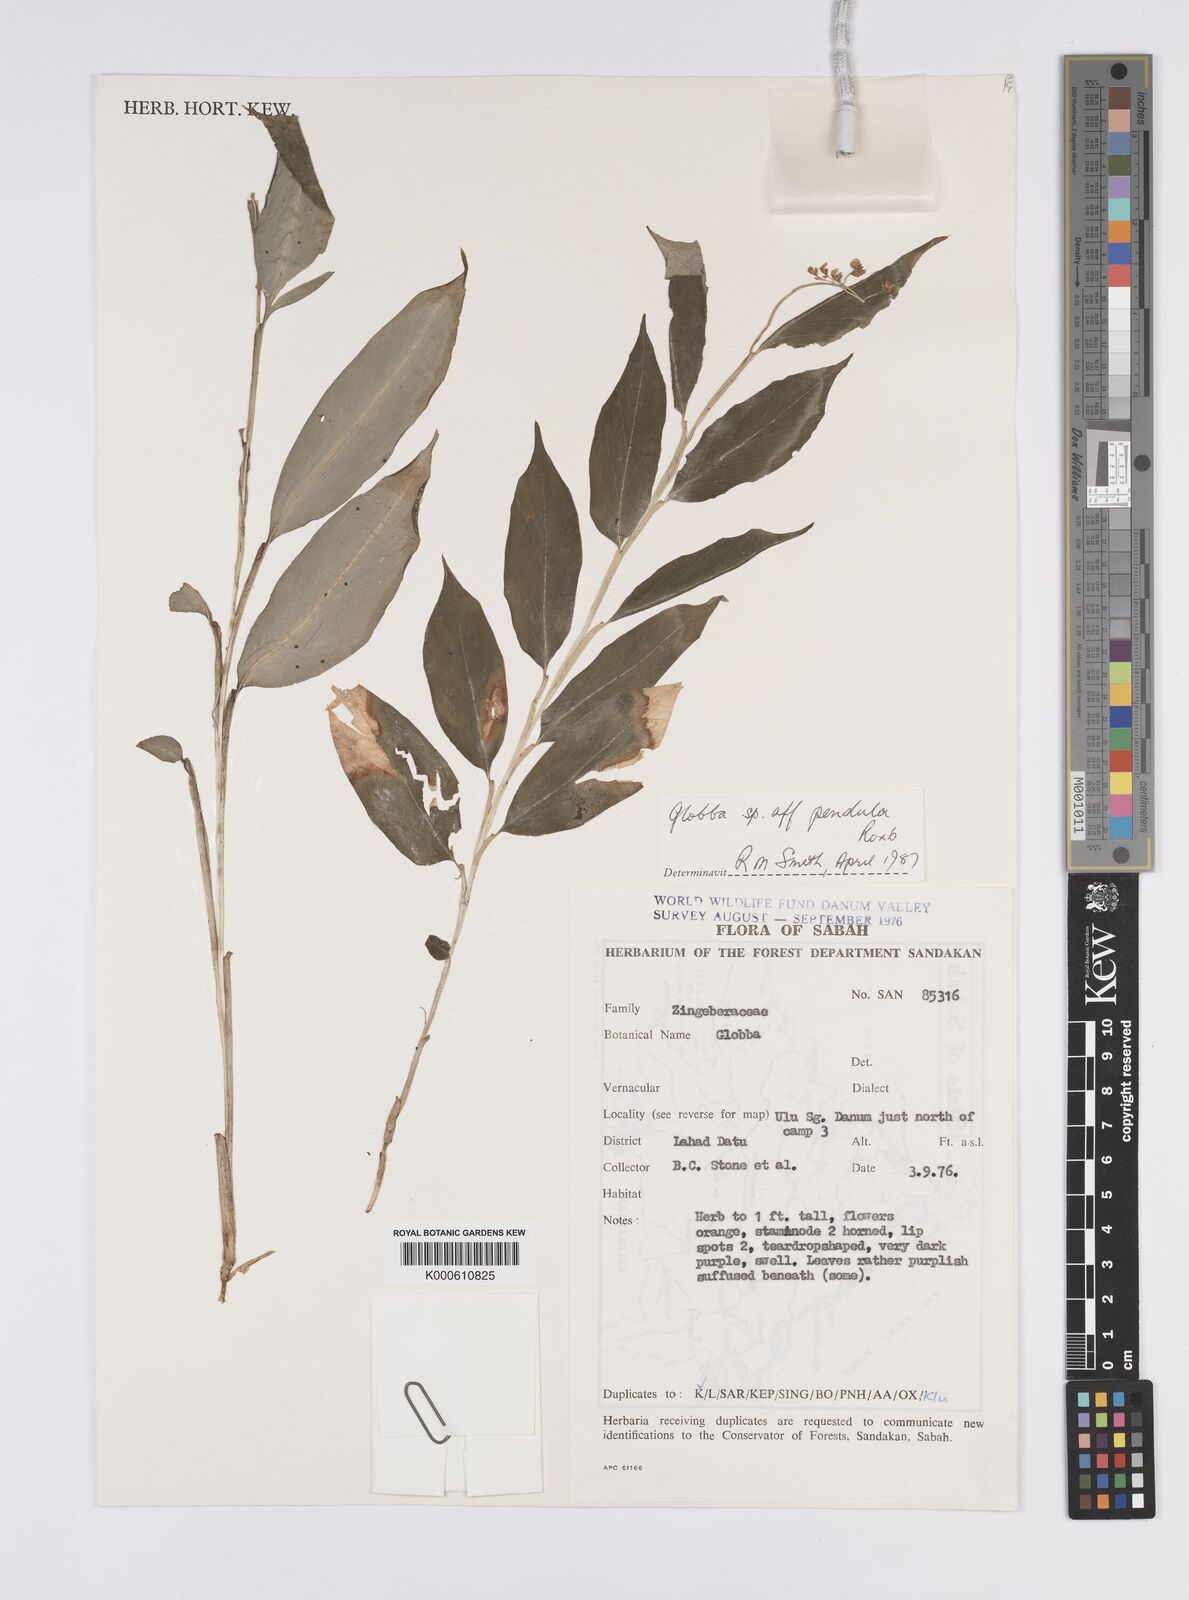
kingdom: Plantae
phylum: Tracheophyta
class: Liliopsida
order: Zingiberales
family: Zingiberaceae
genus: Globba
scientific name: Globba pendula
